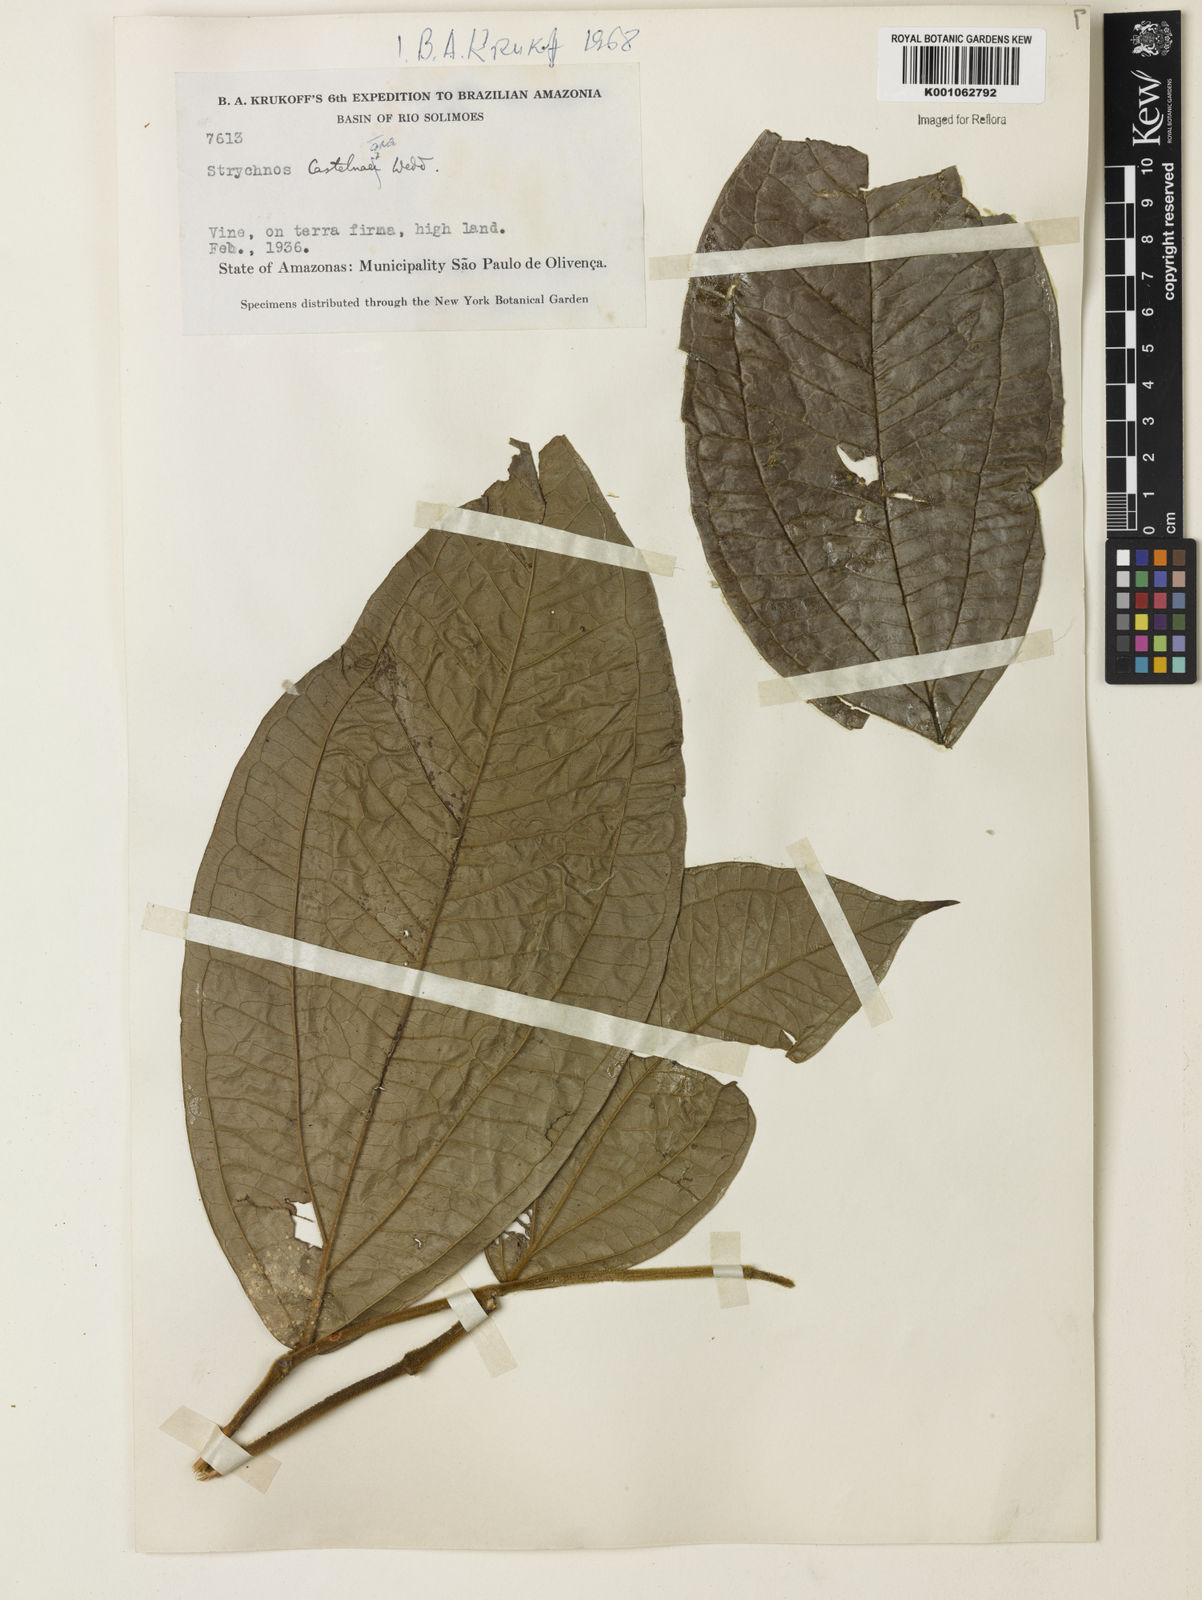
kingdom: Plantae
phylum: Tracheophyta
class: Magnoliopsida
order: Gentianales
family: Loganiaceae
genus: Strychnos
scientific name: Strychnos
